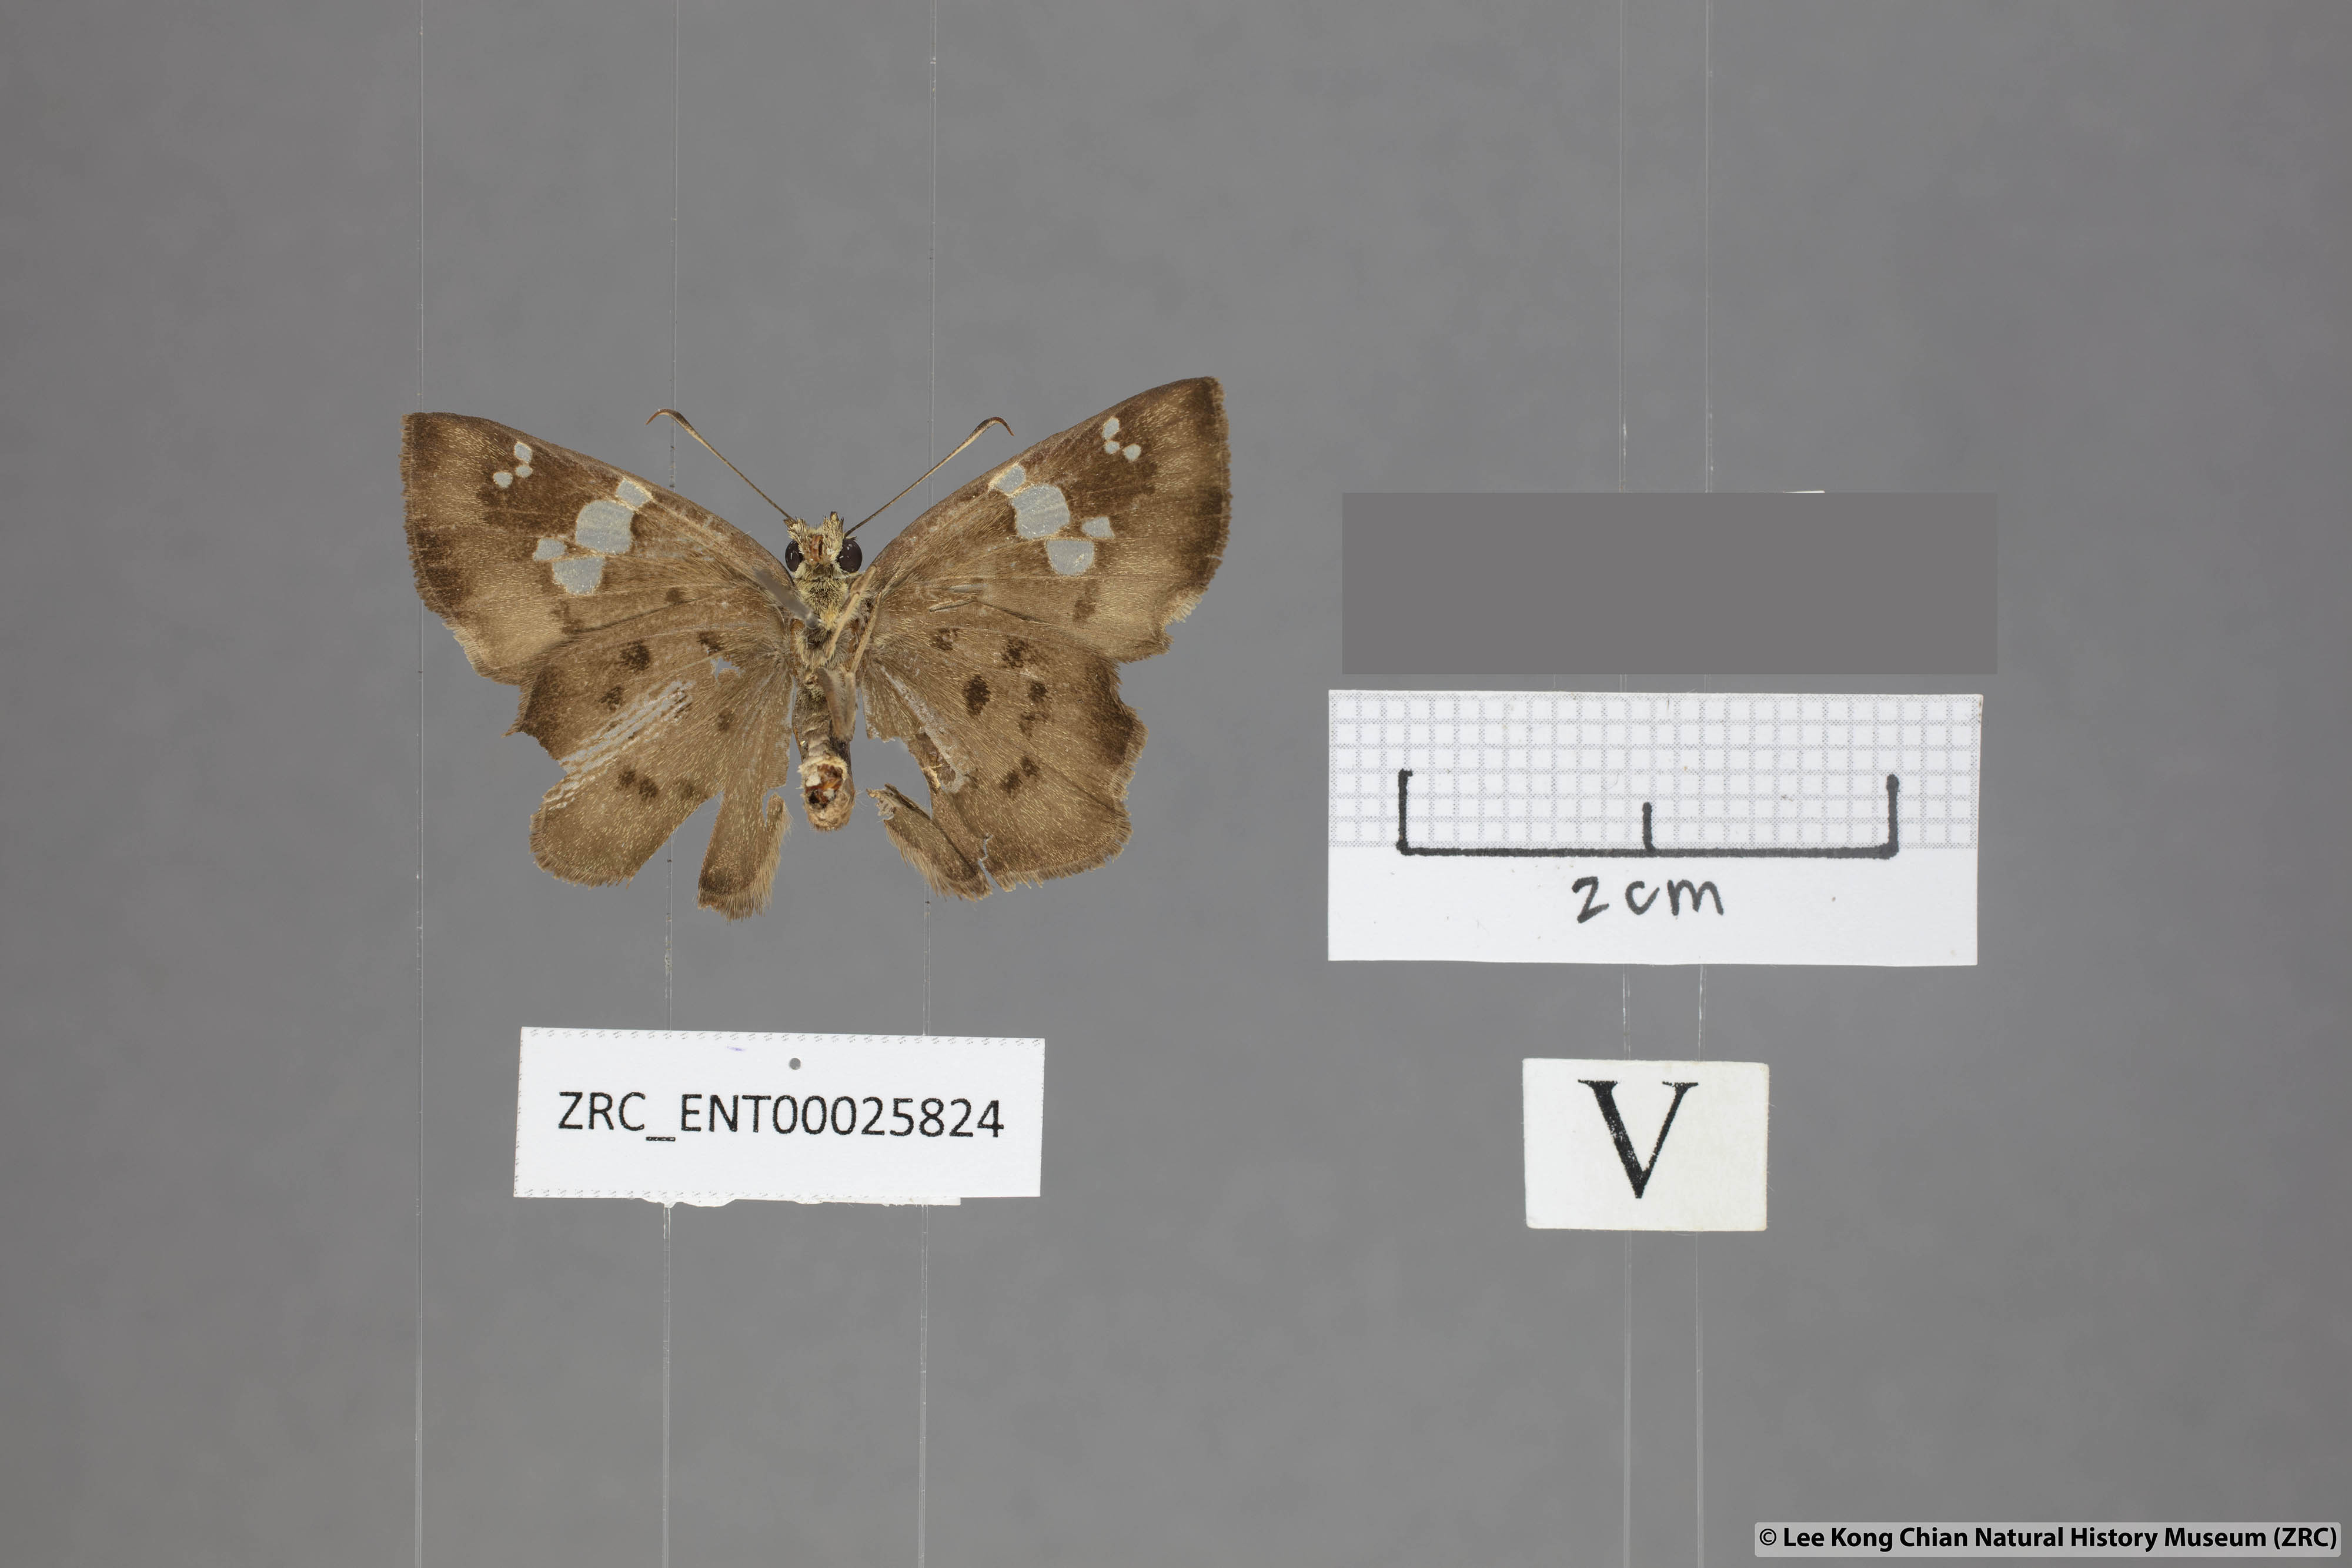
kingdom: Animalia
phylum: Arthropoda
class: Insecta
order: Lepidoptera
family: Hesperiidae
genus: Coladenia
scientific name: Coladenia
